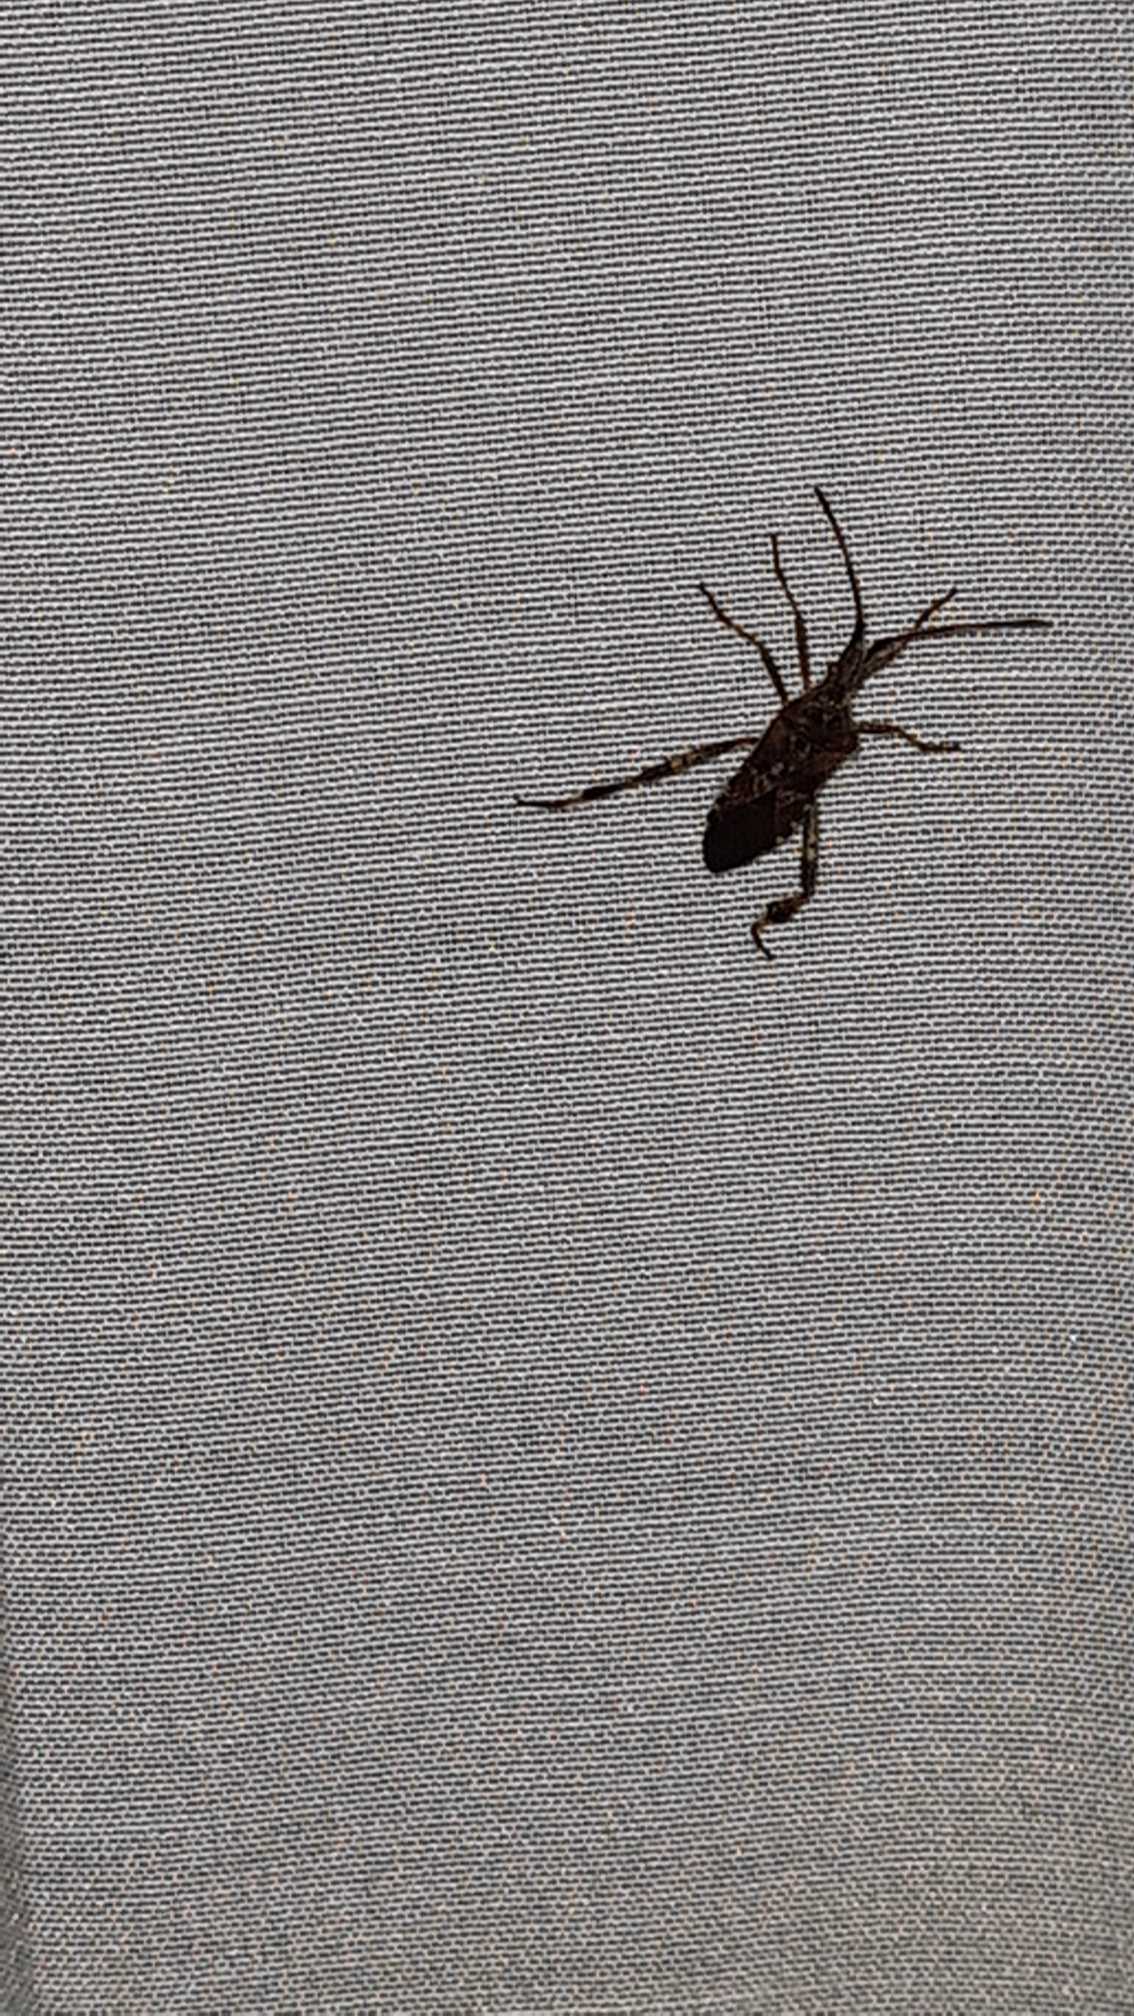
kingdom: Animalia
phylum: Arthropoda
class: Insecta
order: Hemiptera
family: Coreidae
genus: Leptoglossus
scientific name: Leptoglossus occidentalis
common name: Amerikansk fyrretæge
